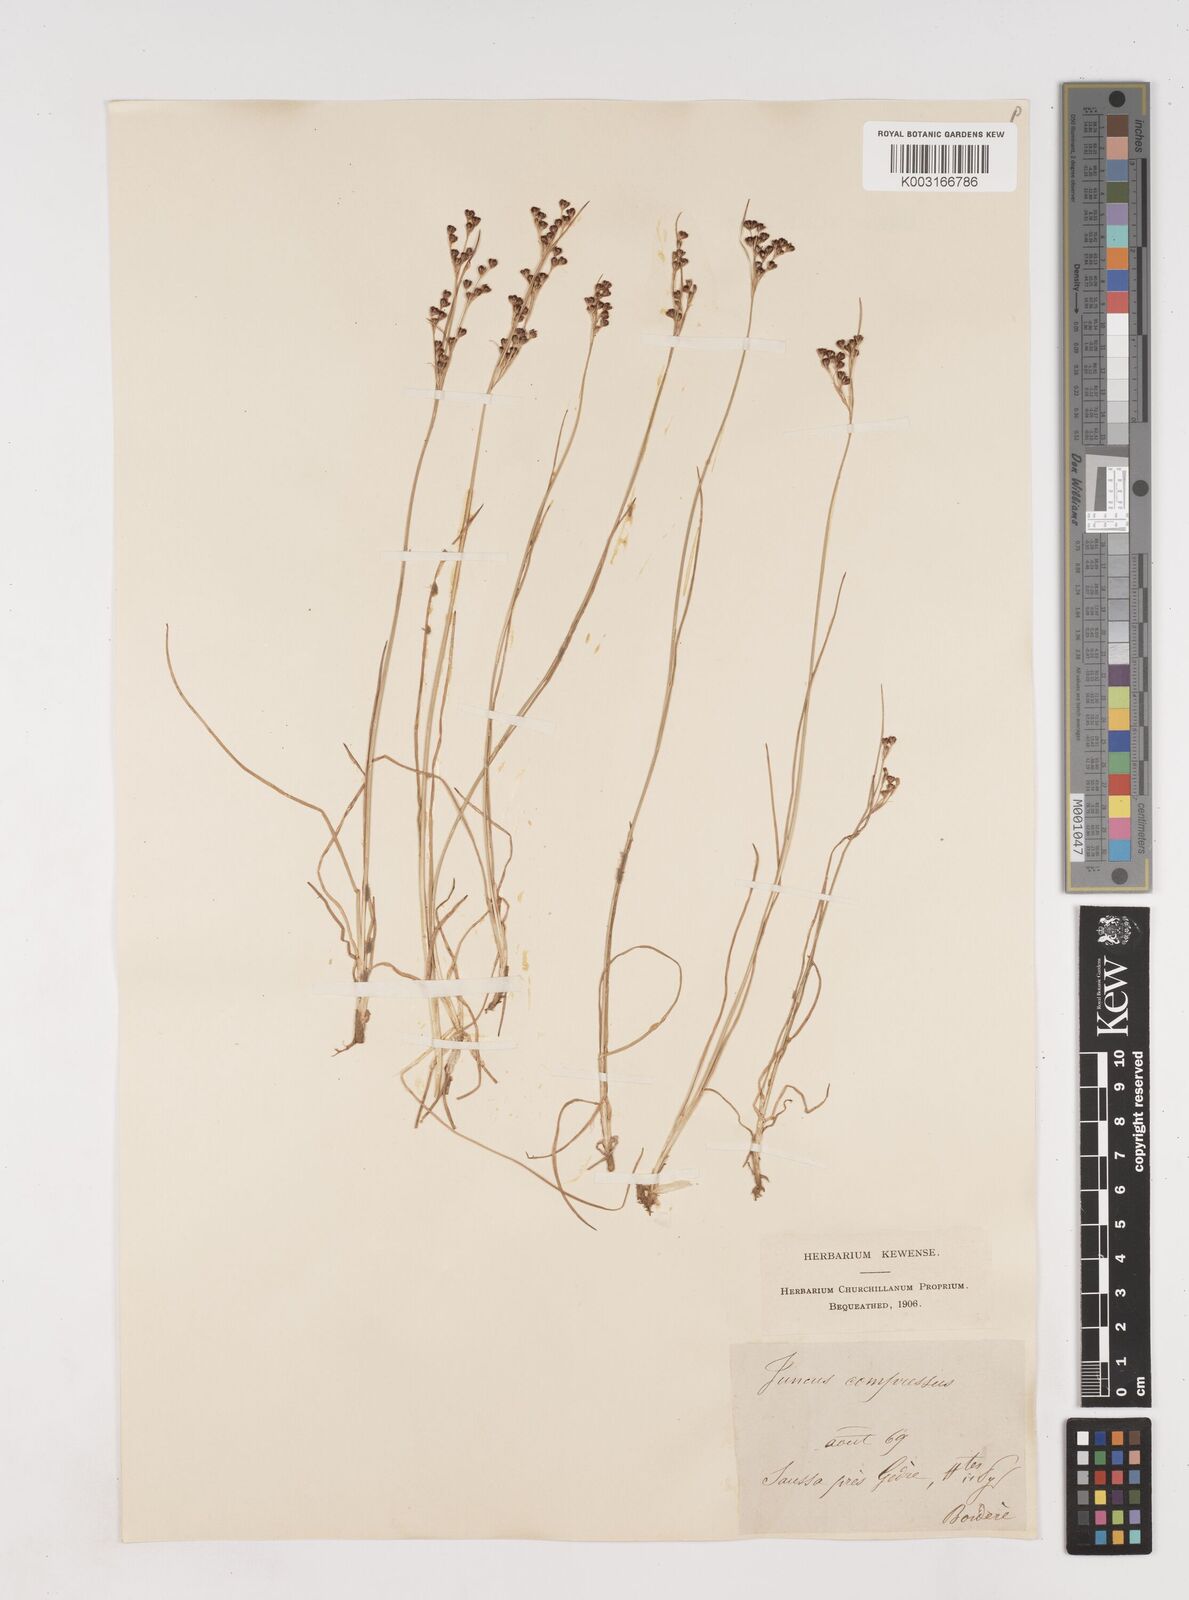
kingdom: Plantae
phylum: Tracheophyta
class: Liliopsida
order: Poales
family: Juncaceae
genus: Juncus
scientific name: Juncus compressus
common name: Round-fruited rush
